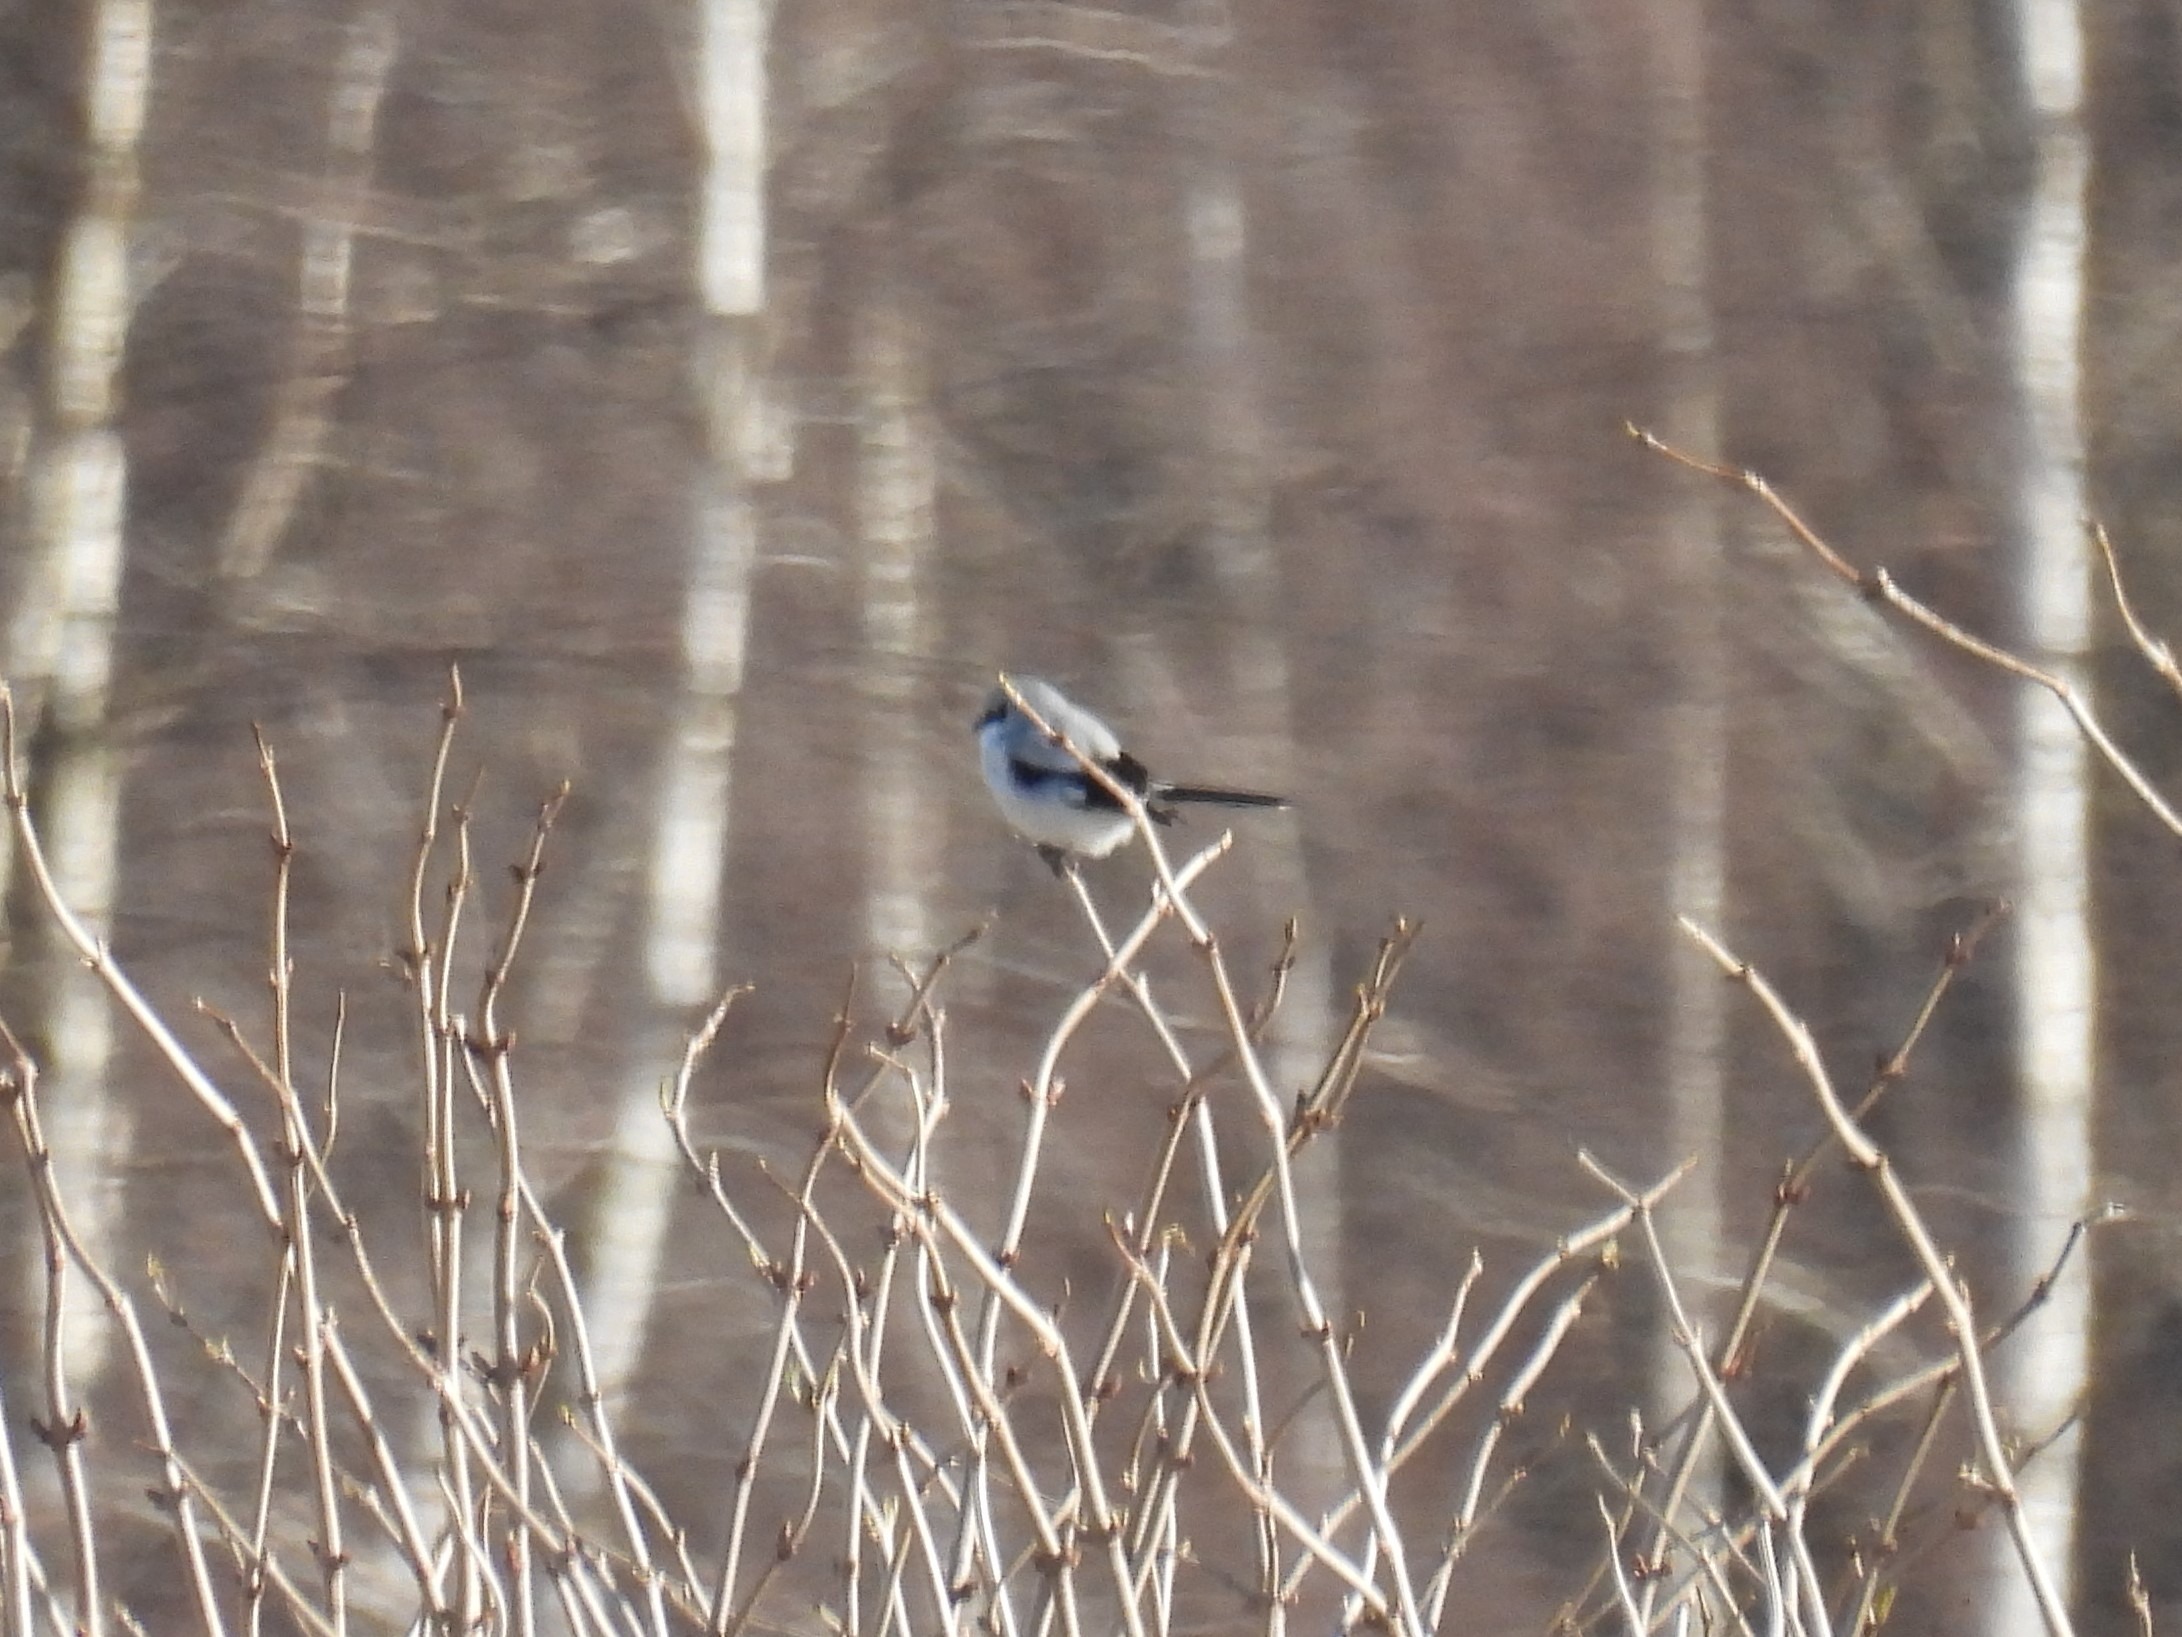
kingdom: Animalia
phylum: Chordata
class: Aves
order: Passeriformes
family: Laniidae
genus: Lanius
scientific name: Lanius excubitor
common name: Stor tornskade
